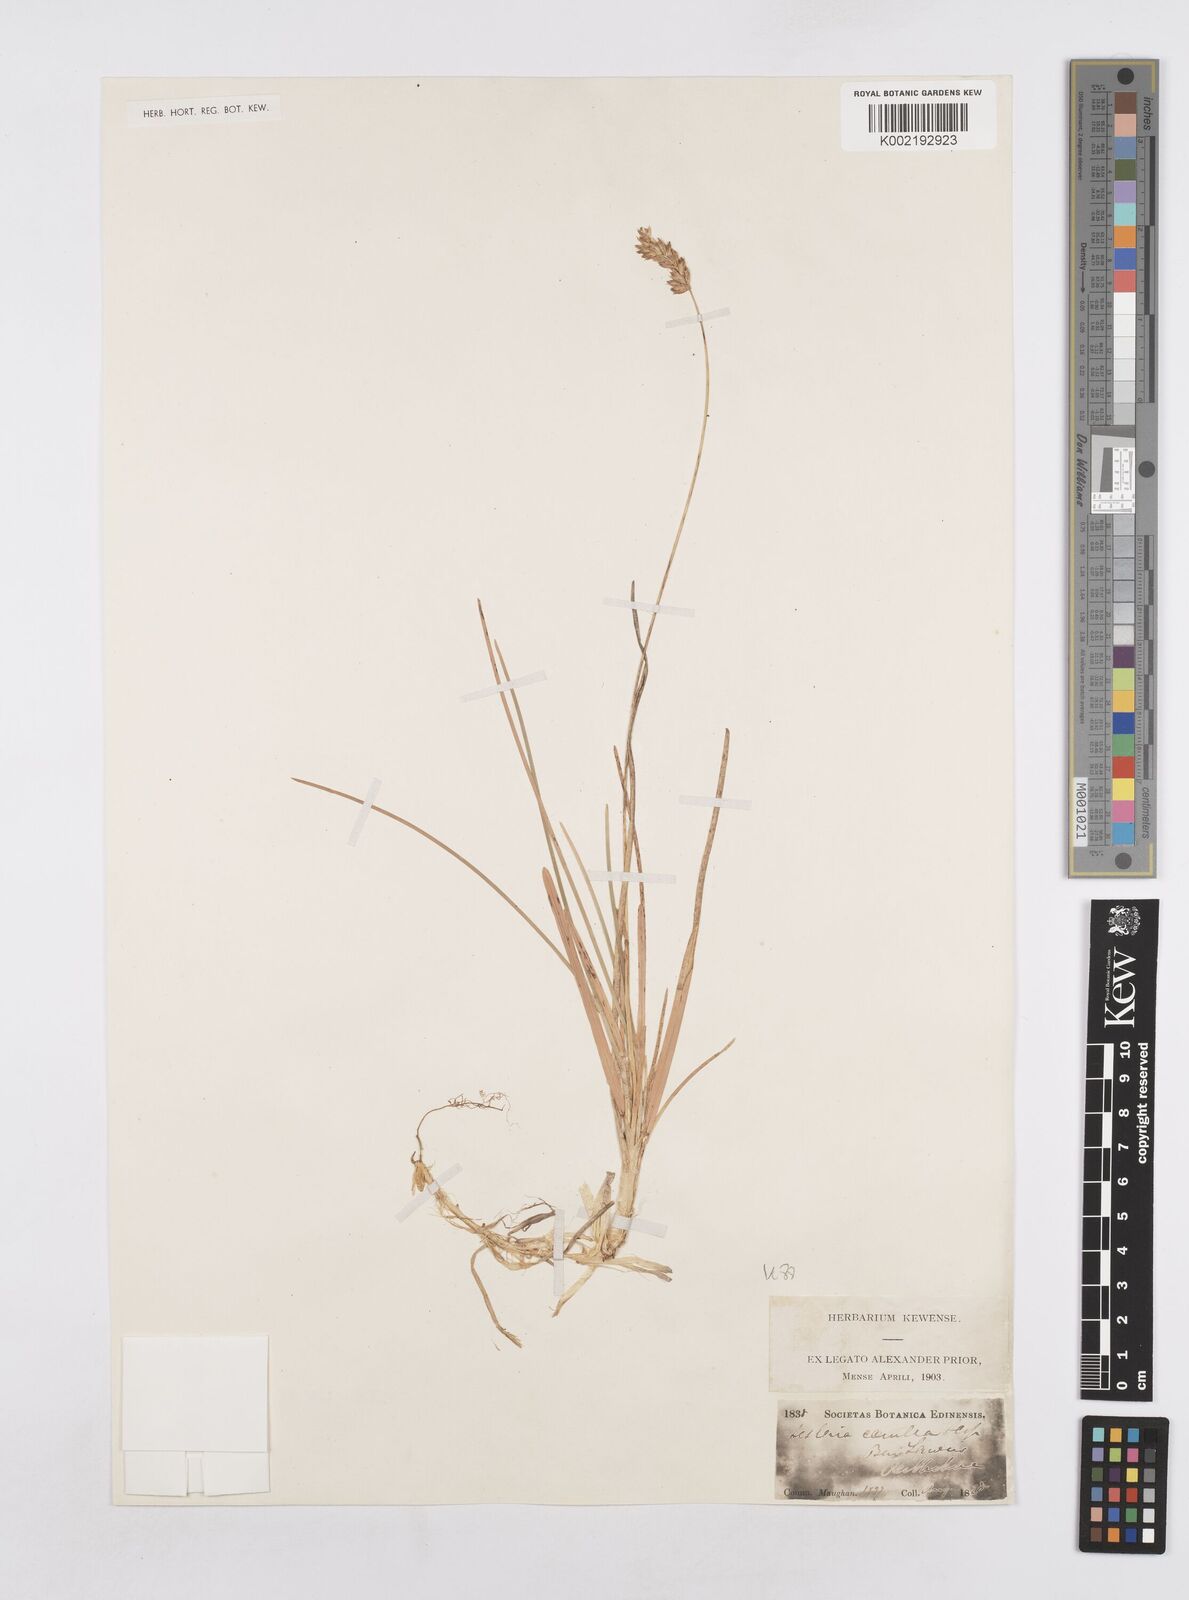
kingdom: Plantae
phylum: Tracheophyta
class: Liliopsida
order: Poales
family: Poaceae
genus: Sesleria
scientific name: Sesleria caerulea
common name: Blue moor-grass
